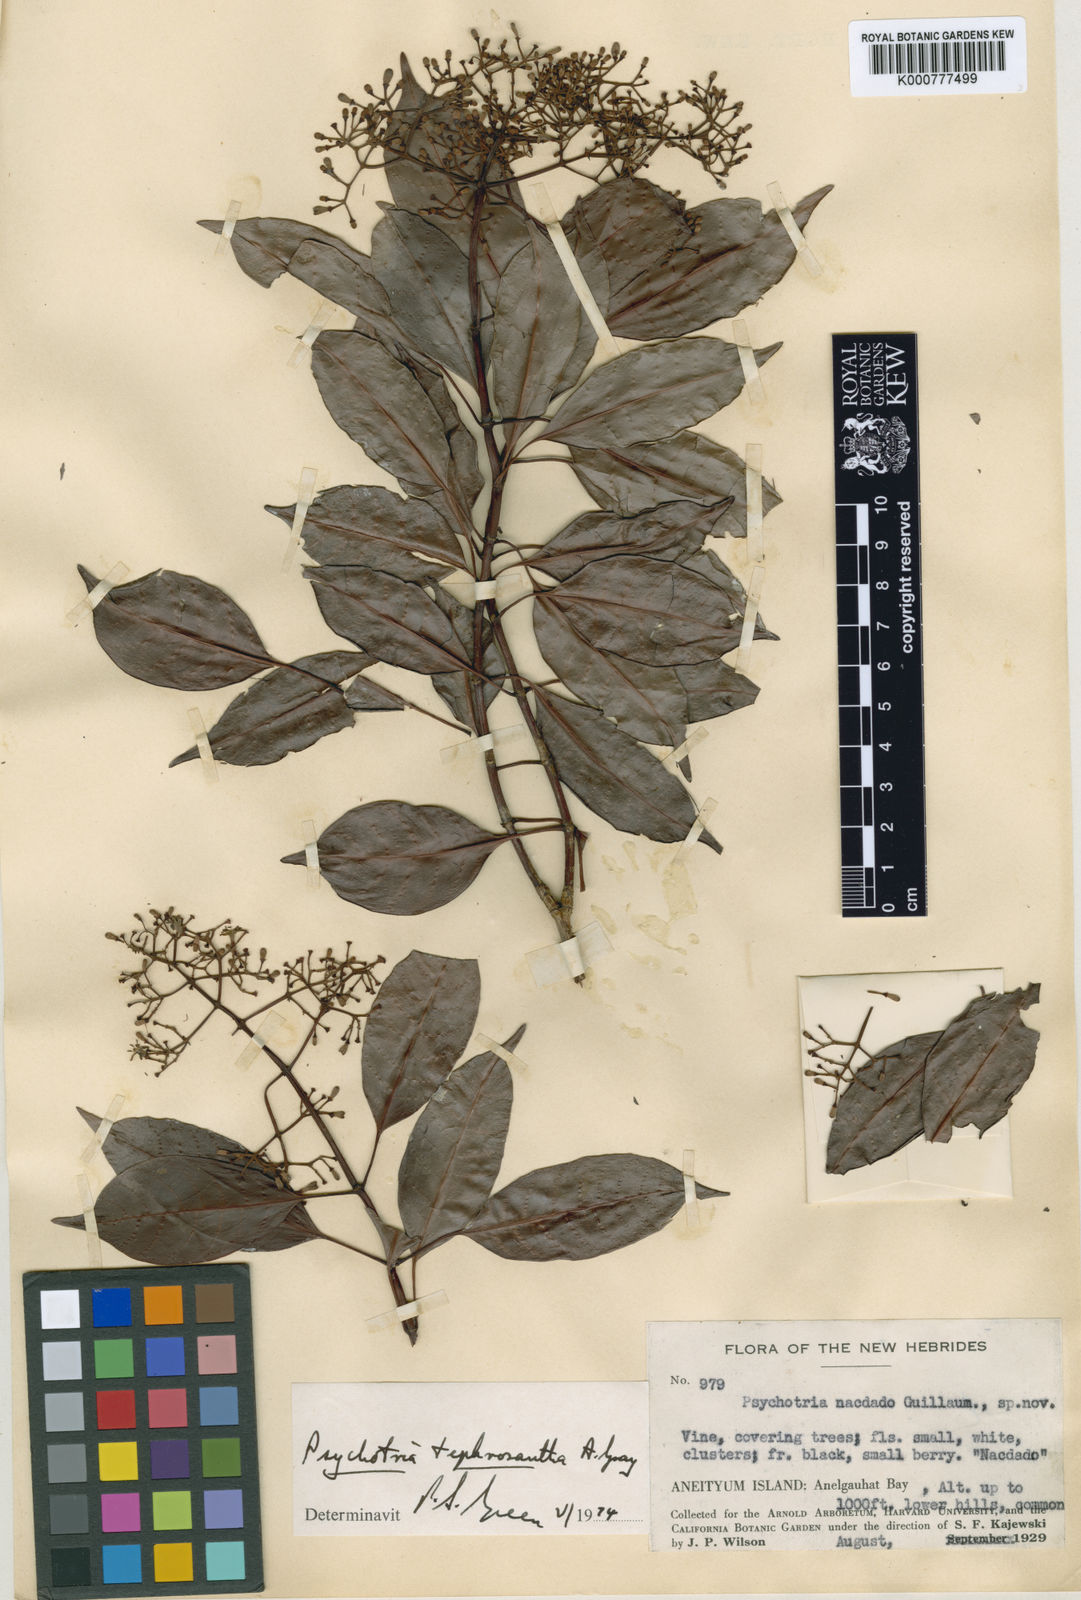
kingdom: Plantae
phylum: Tracheophyta
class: Magnoliopsida
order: Gentianales
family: Rubiaceae
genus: Psychotria
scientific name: Psychotria tephrosantha
